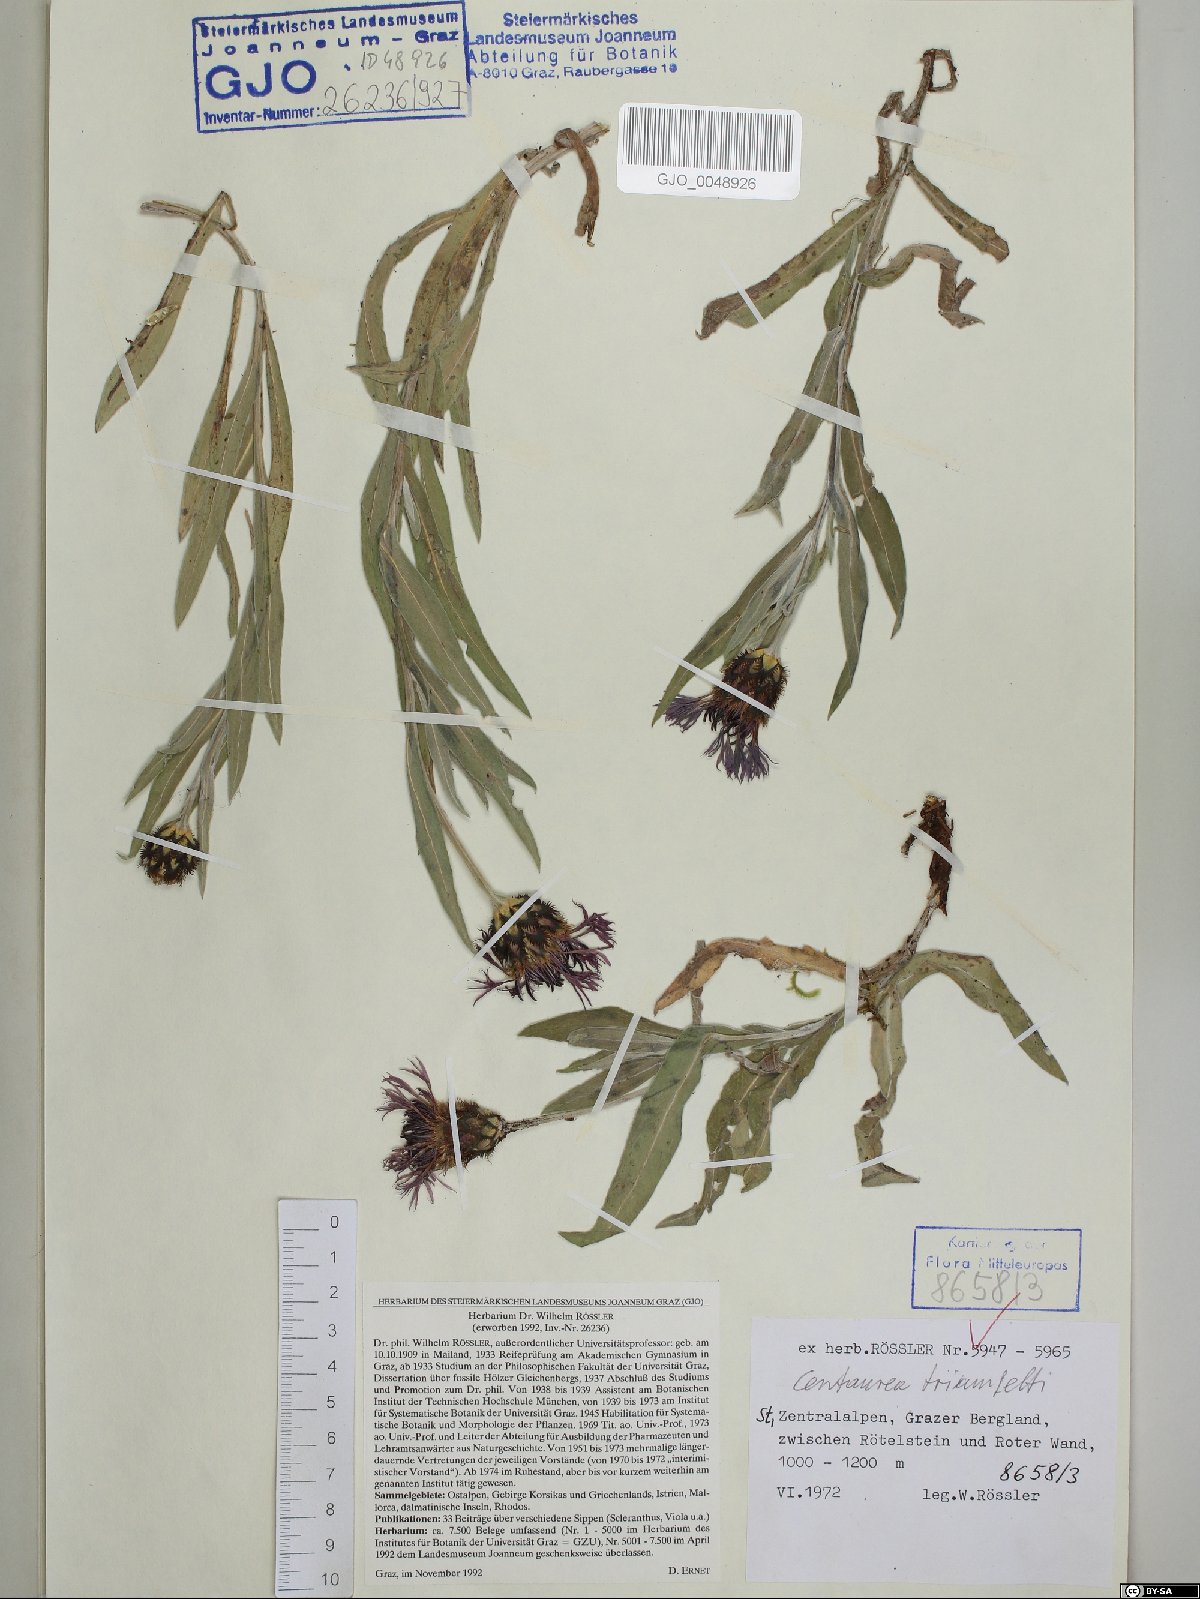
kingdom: Plantae
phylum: Tracheophyta
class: Magnoliopsida
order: Asterales
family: Asteraceae
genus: Centaurea
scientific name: Centaurea triumfettii
